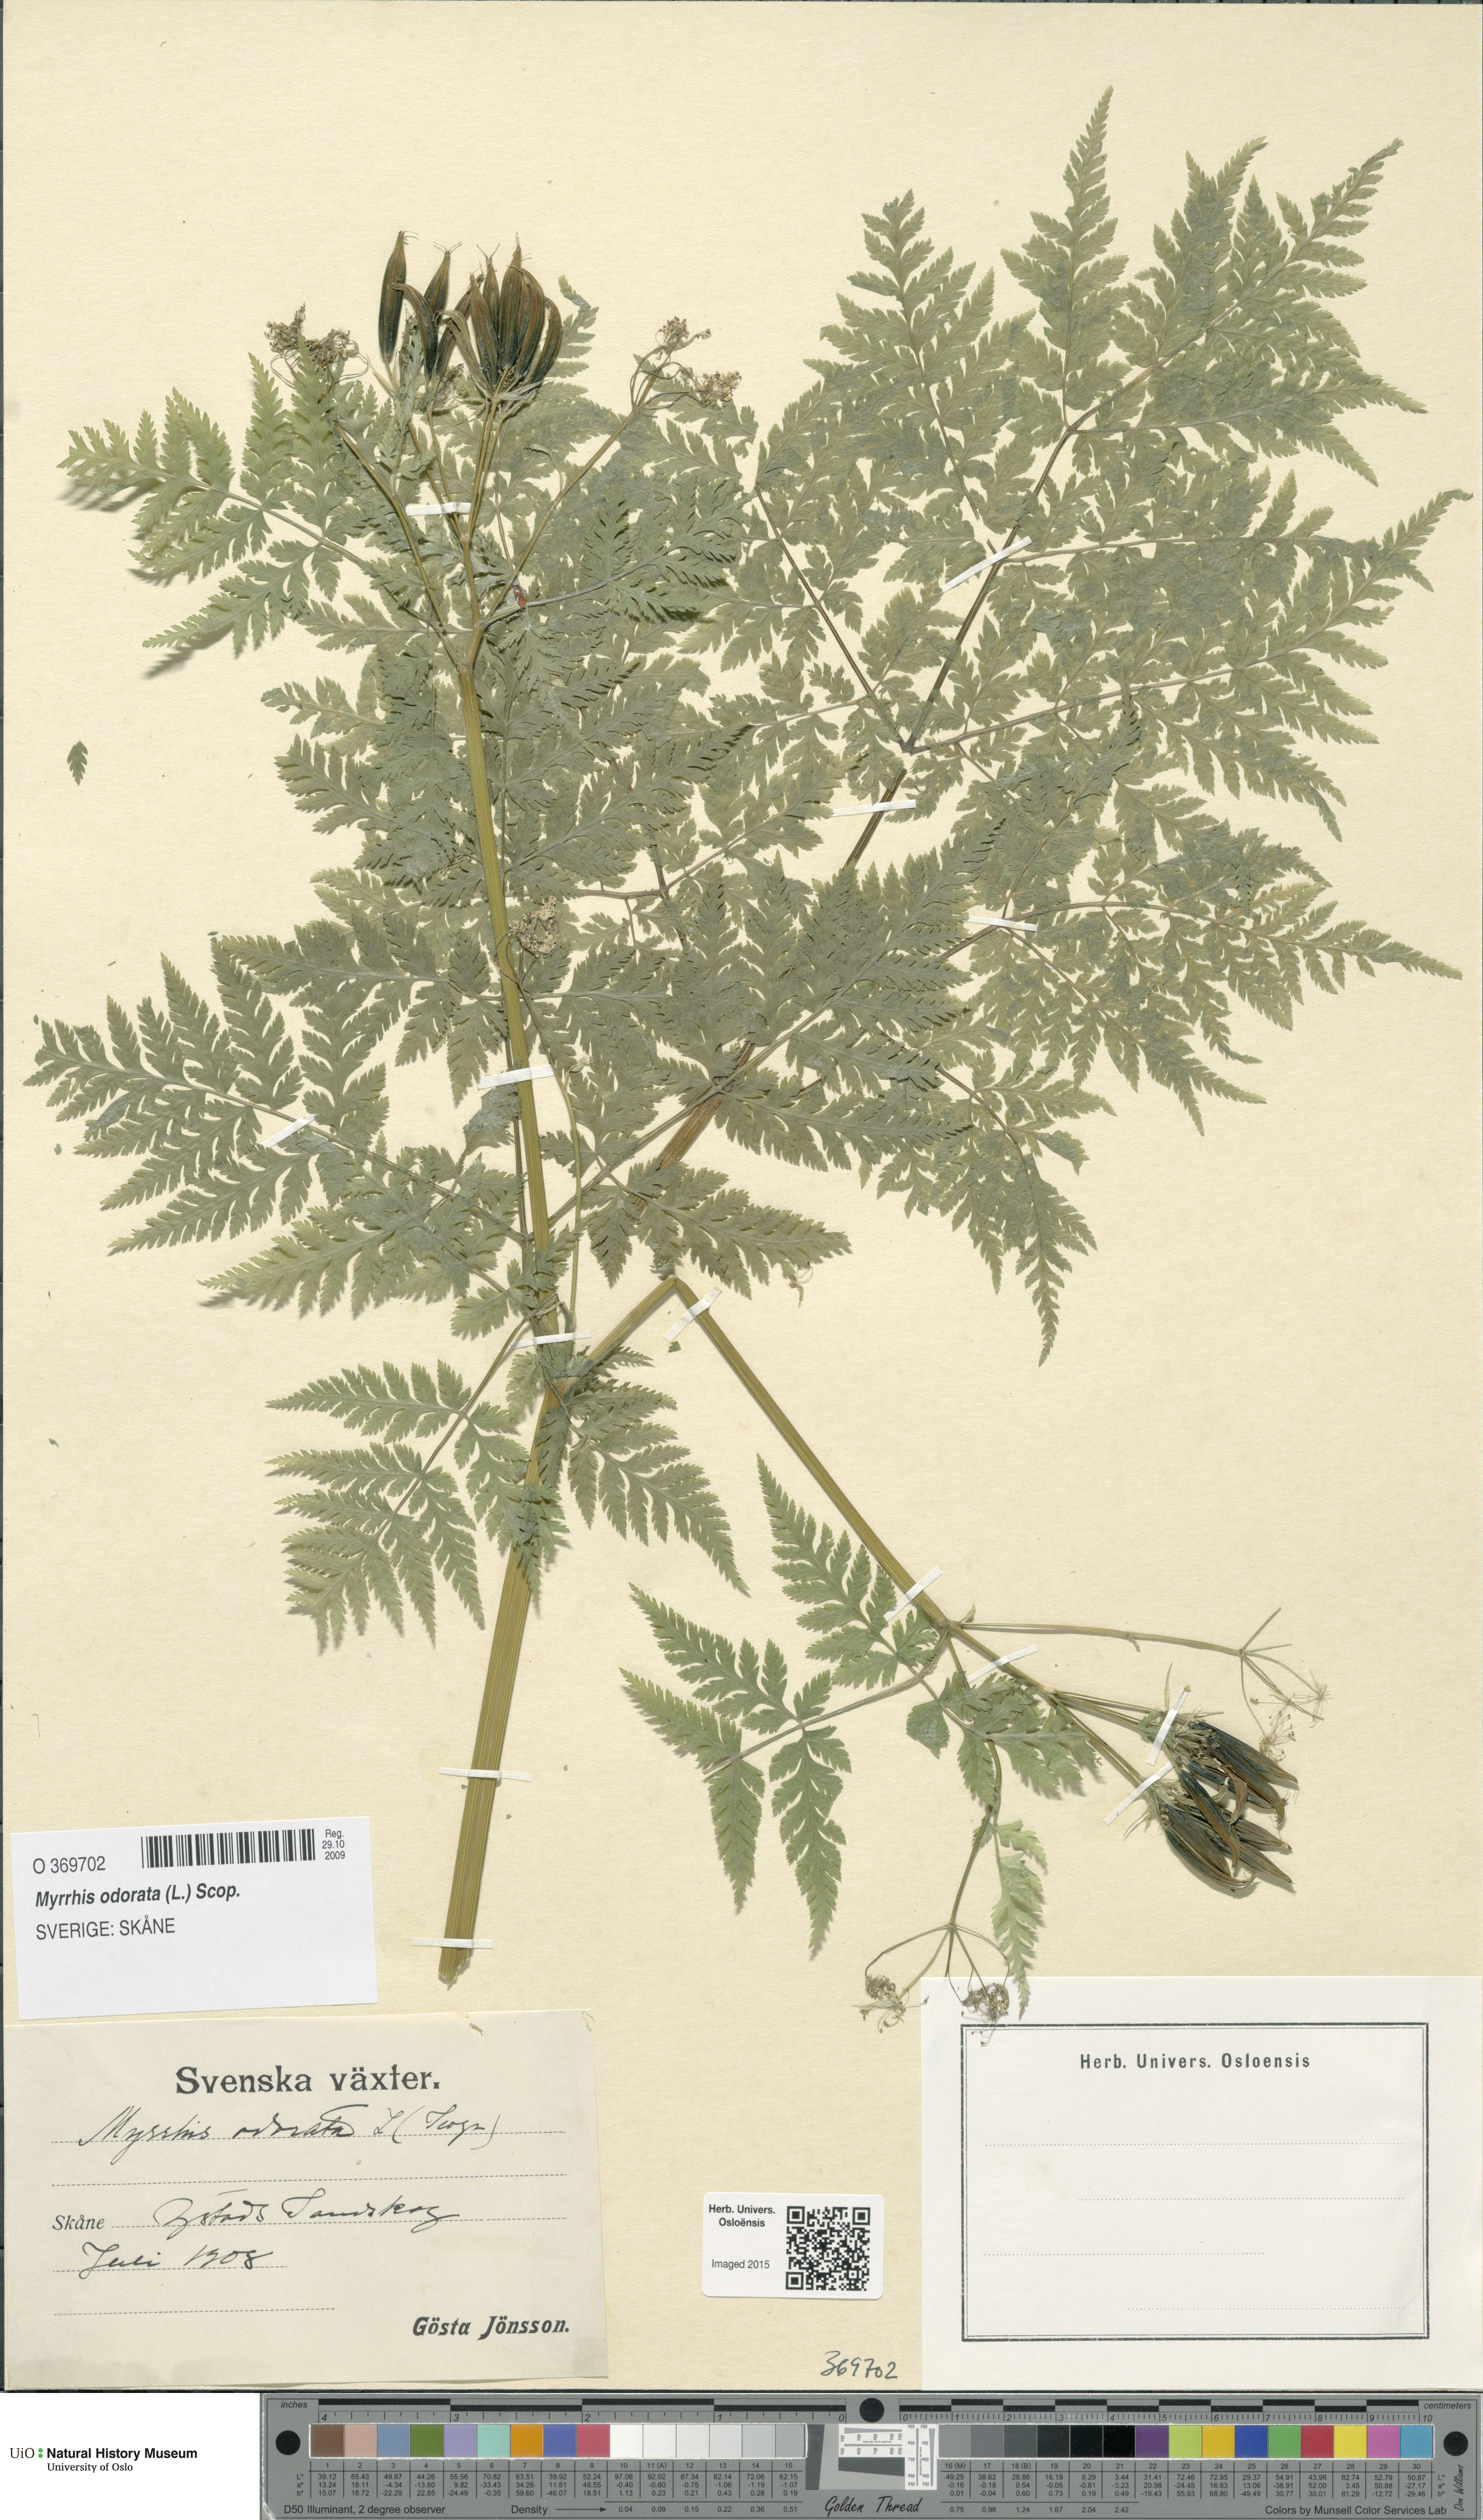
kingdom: Plantae
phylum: Tracheophyta
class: Magnoliopsida
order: Apiales
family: Apiaceae
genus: Myrrhis
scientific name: Myrrhis odorata
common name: Sweet cicely
